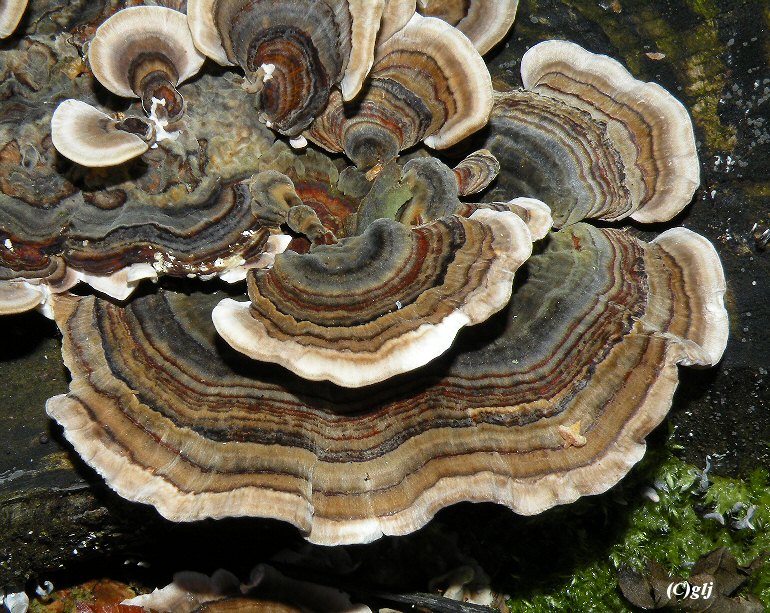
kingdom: Fungi
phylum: Basidiomycota
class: Agaricomycetes
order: Polyporales
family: Polyporaceae
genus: Trametes
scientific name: Trametes versicolor
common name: broget læderporesvamp
